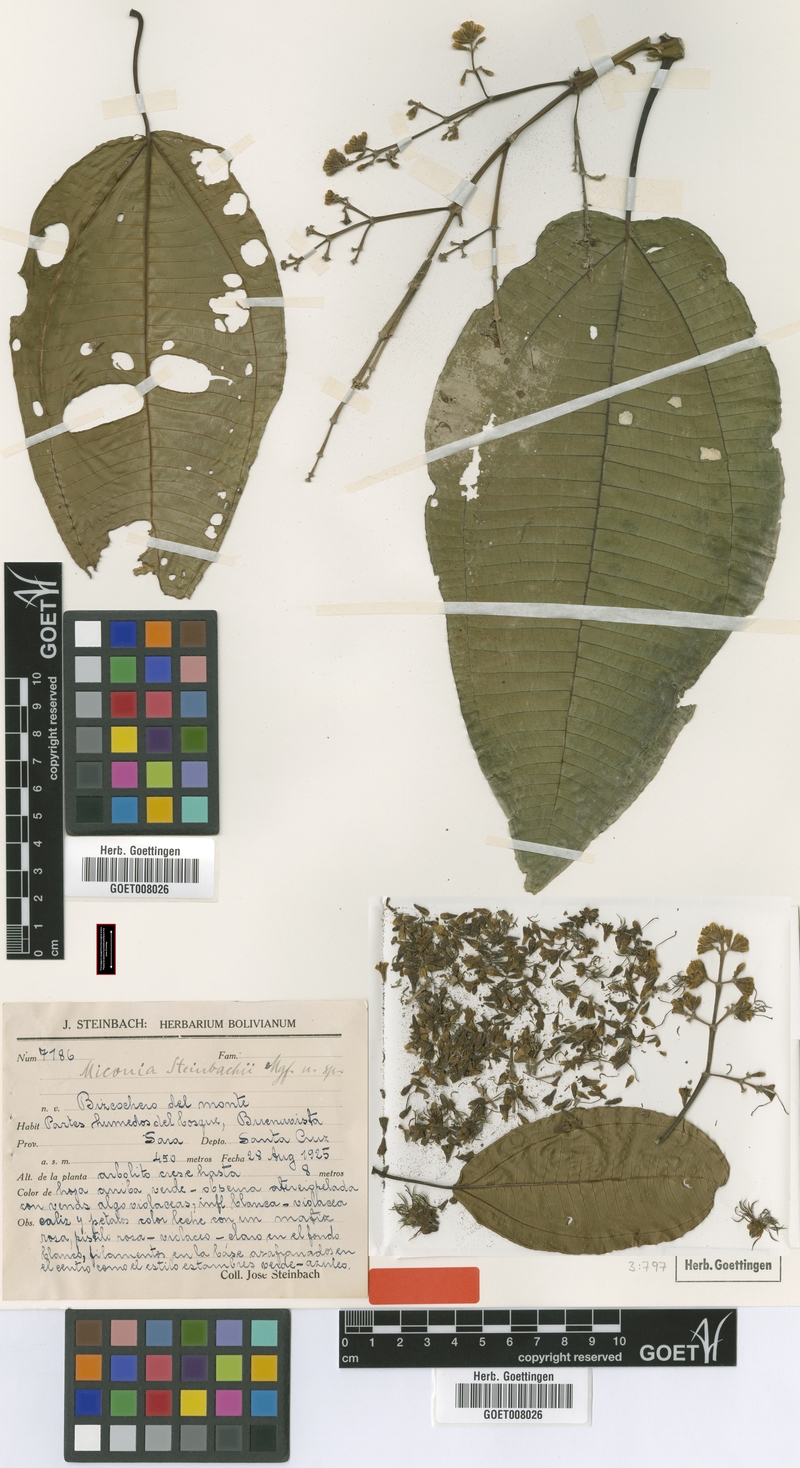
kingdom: Plantae
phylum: Tracheophyta
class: Magnoliopsida
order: Myrtales
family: Melastomataceae
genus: Miconia
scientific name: Miconia steinbachii
